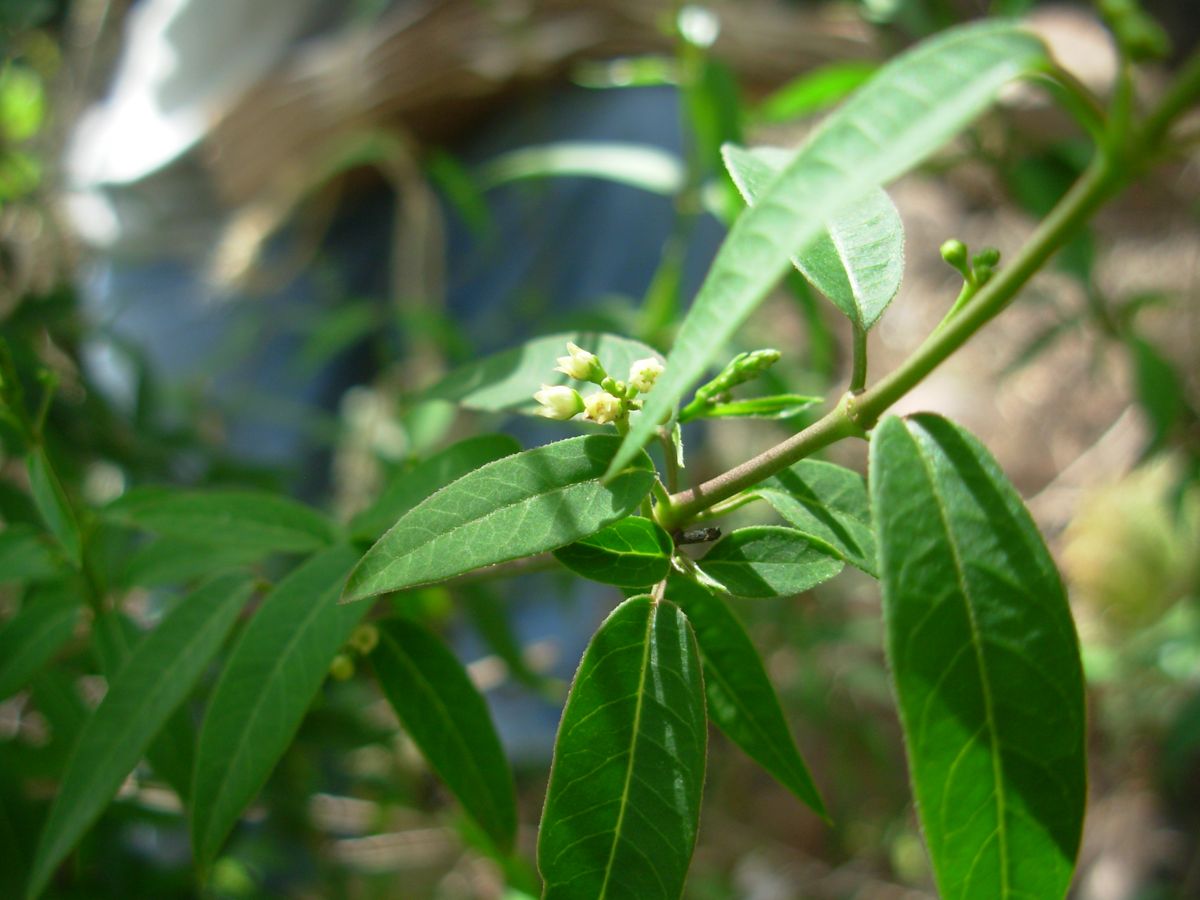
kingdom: Plantae
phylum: Tracheophyta
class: Magnoliopsida
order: Gentianales
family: Apocynaceae
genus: Metastelma
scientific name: Metastelma thysanotum
